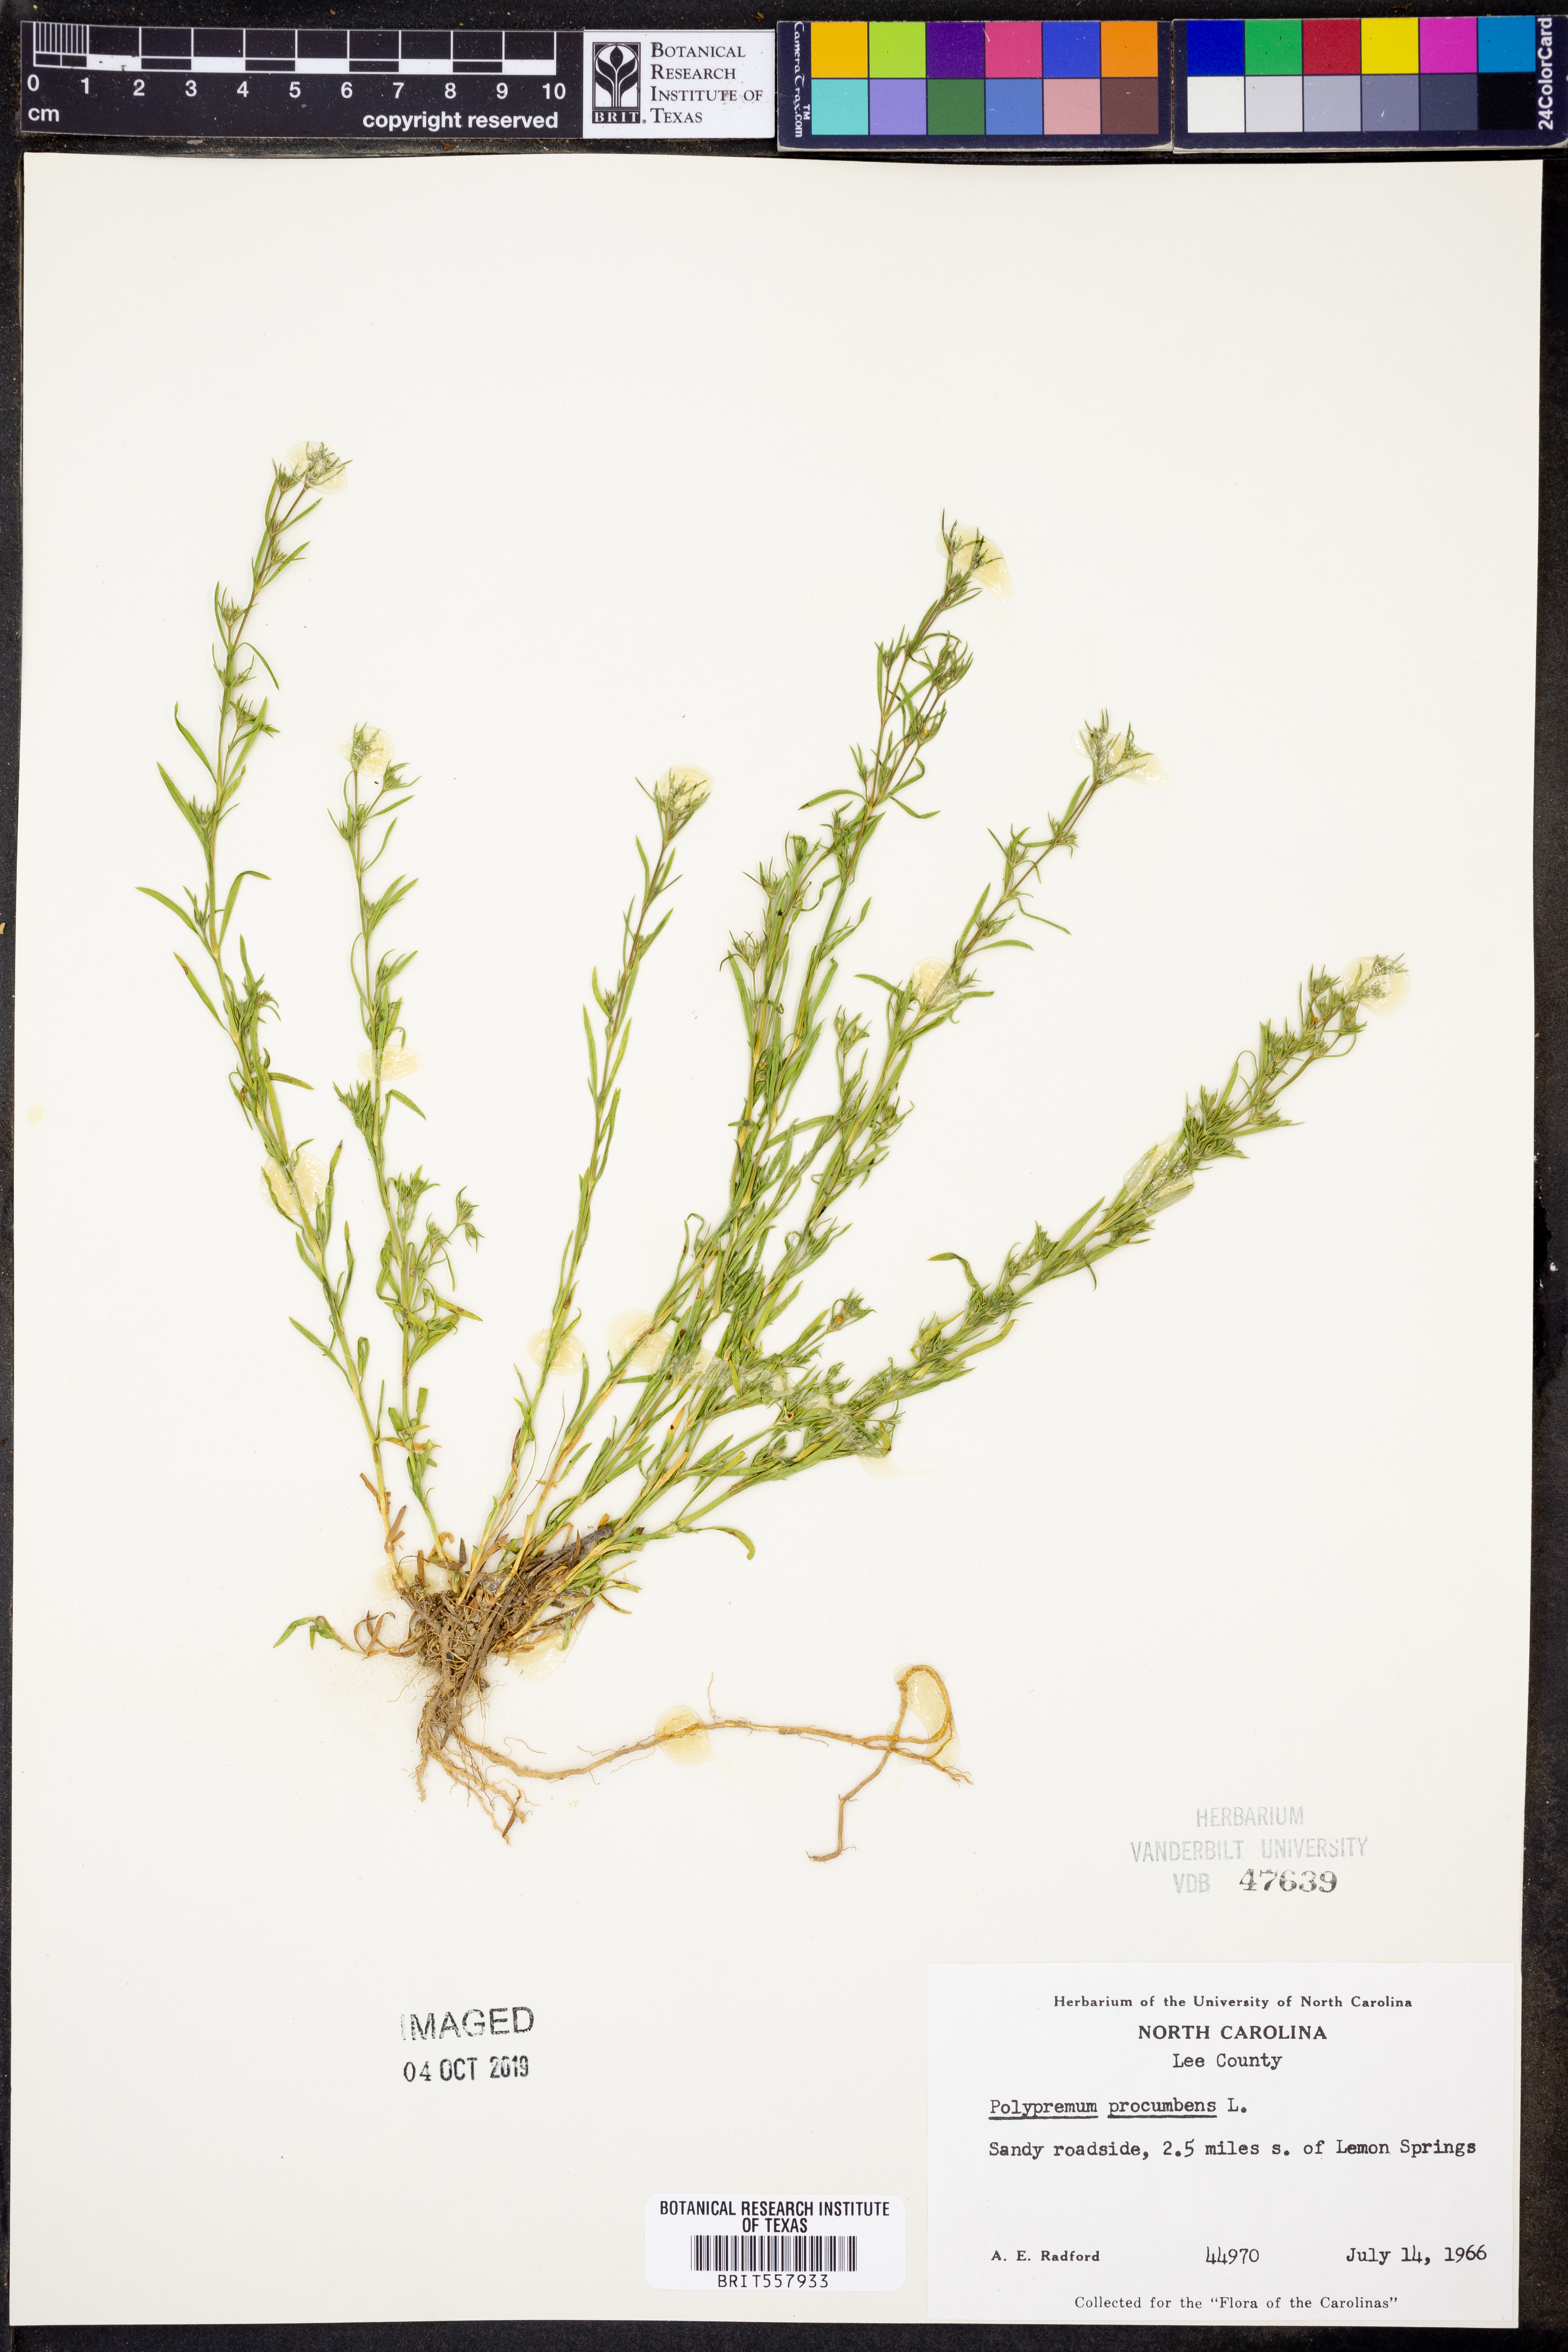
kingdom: Plantae
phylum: Tracheophyta
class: Magnoliopsida
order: Lamiales
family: Tetrachondraceae
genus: Polypremum
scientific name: Polypremum procumbens
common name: Juniper-leaf
